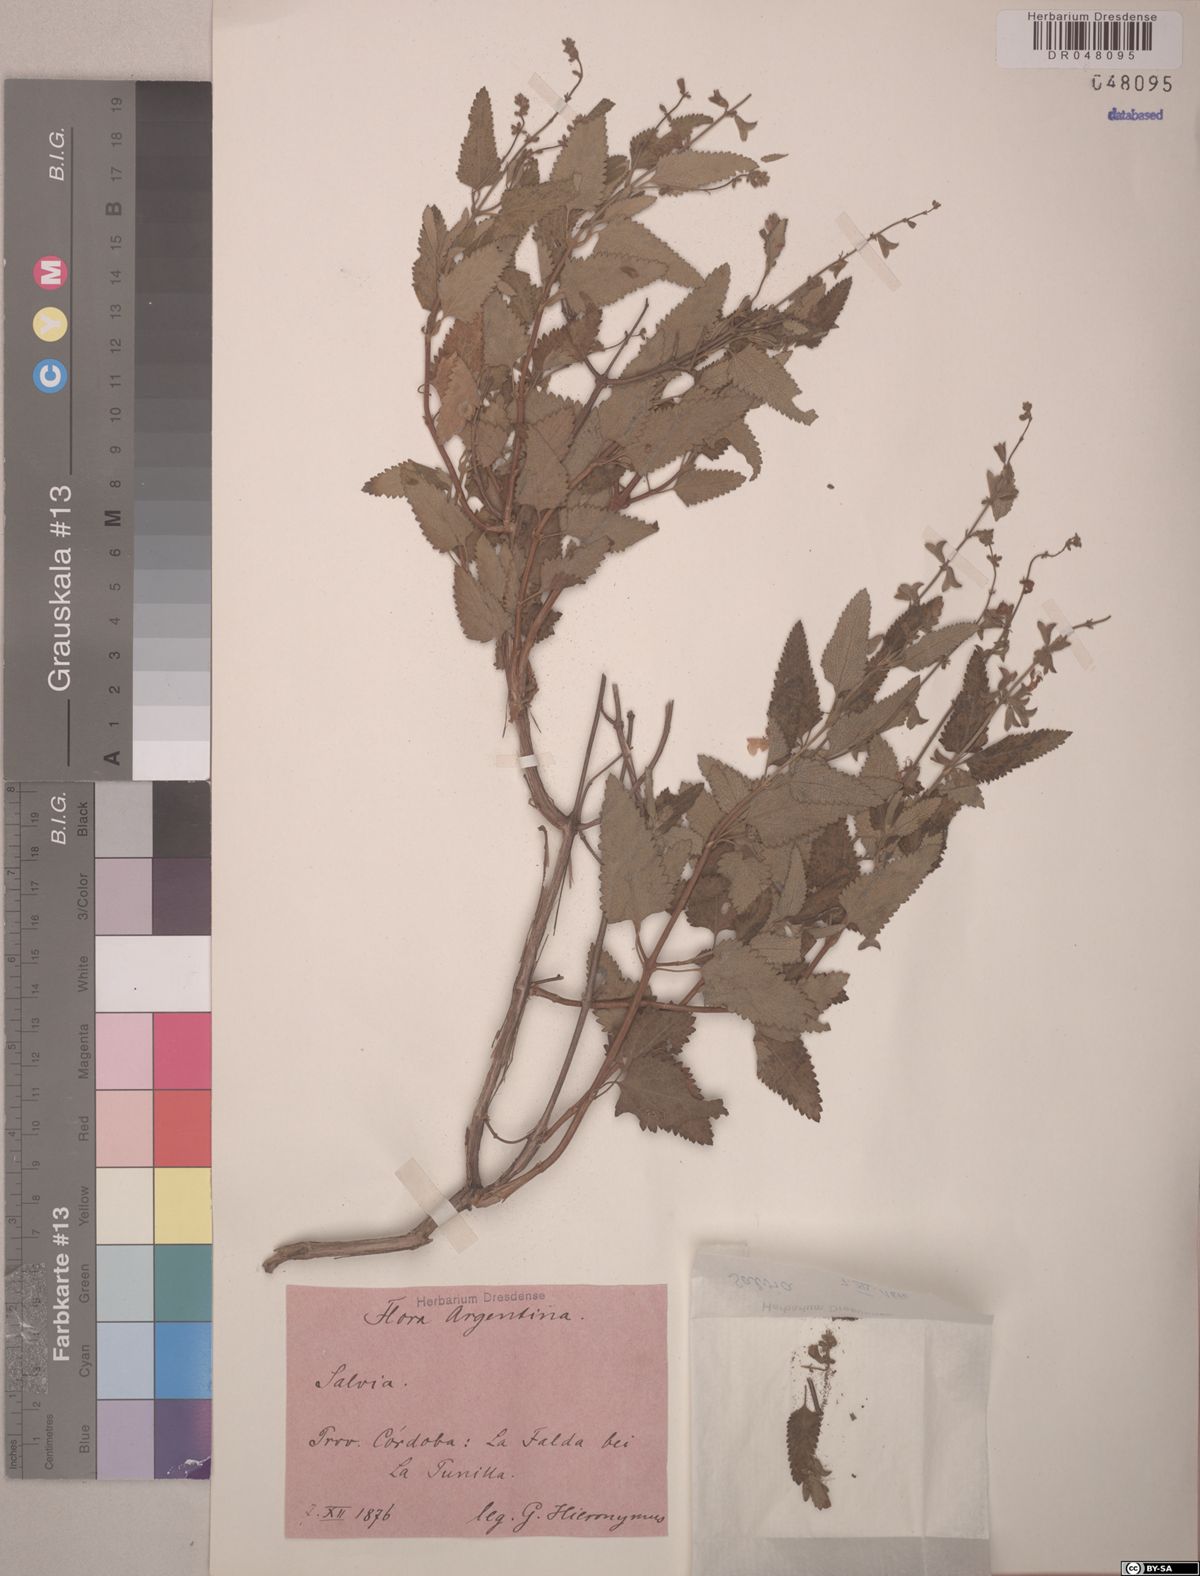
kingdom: Plantae
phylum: Tracheophyta
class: Magnoliopsida
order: Lamiales
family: Lamiaceae
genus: Salvia
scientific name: Salvia cuspidata
